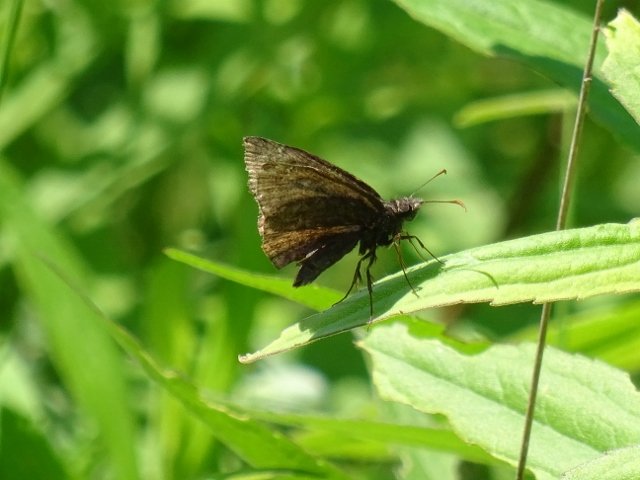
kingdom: Animalia
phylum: Arthropoda
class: Insecta
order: Lepidoptera
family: Hesperiidae
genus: Erynnis
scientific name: Erynnis
